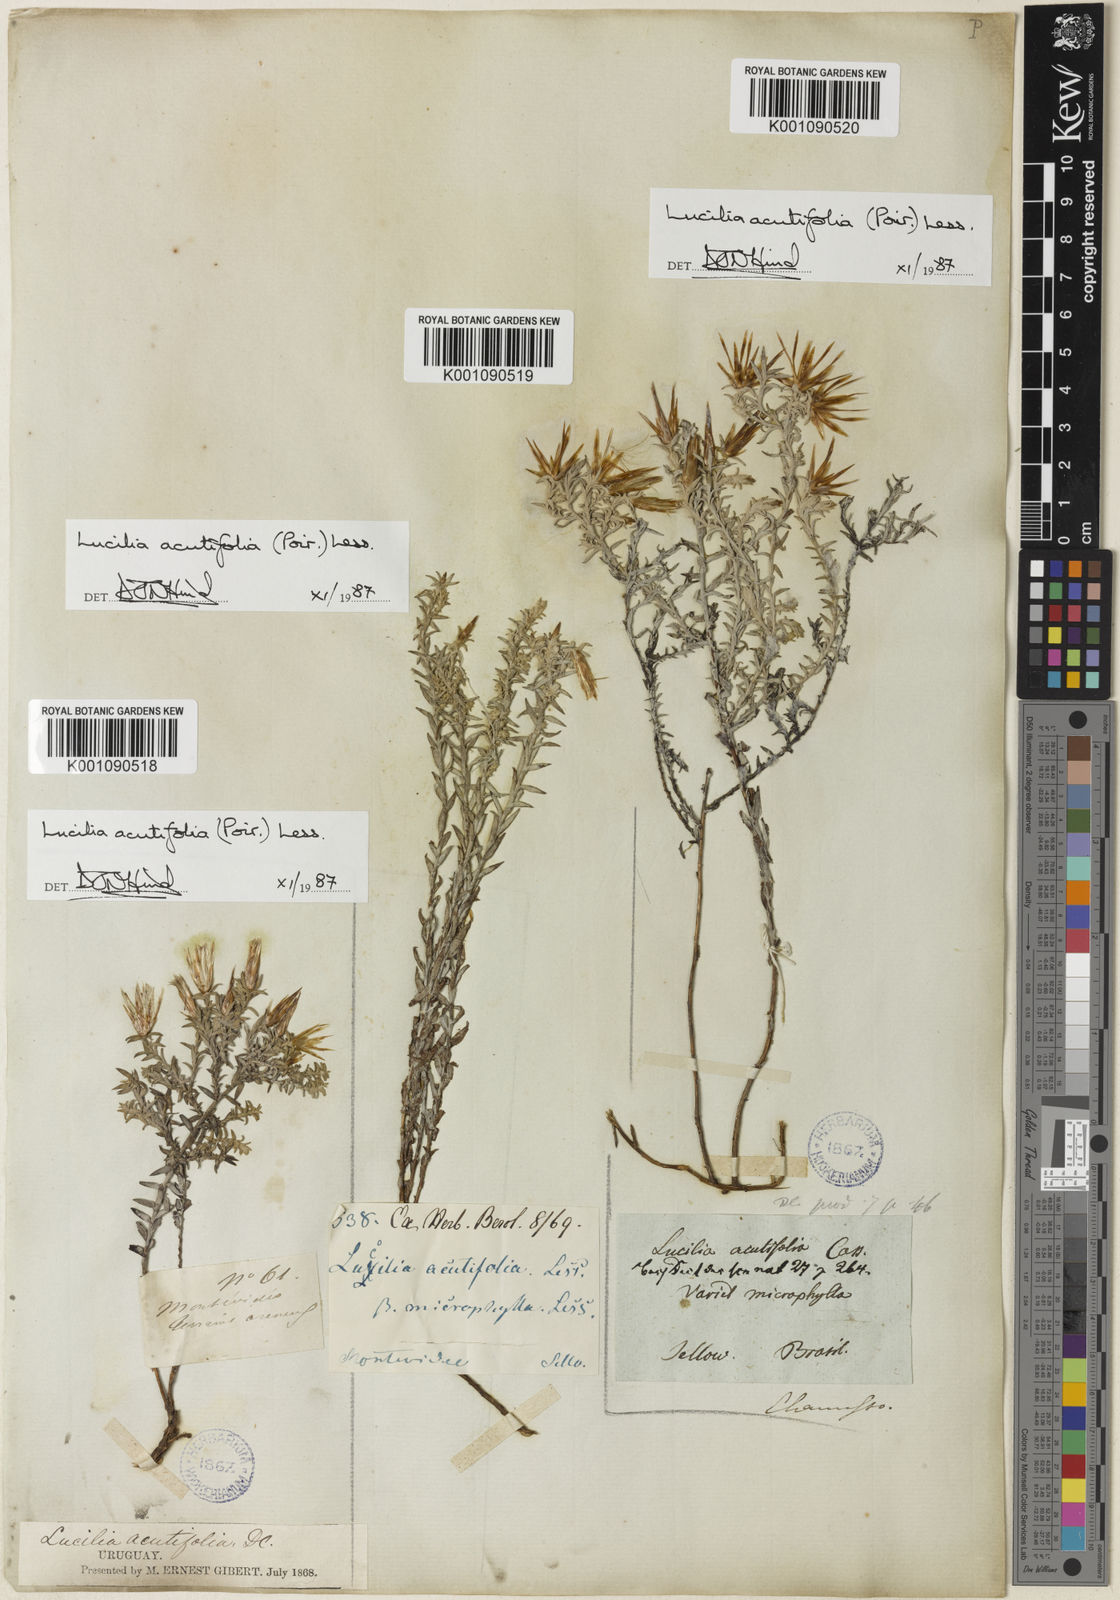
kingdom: Plantae
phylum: Tracheophyta
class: Magnoliopsida
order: Asterales
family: Asteraceae
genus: Lucilia
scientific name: Lucilia acutifolia
